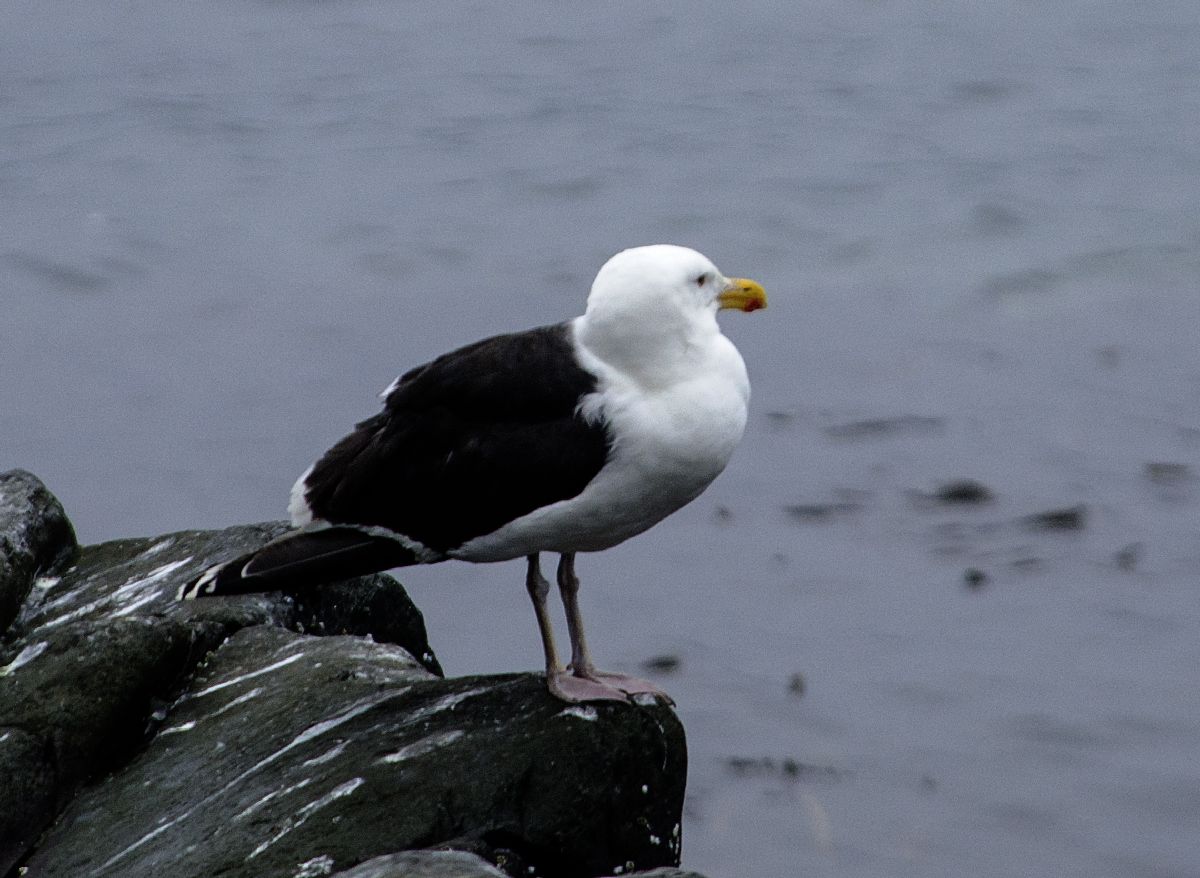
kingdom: Animalia
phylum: Chordata
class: Aves
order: Charadriiformes
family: Laridae
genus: Larus
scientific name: Larus marinus
